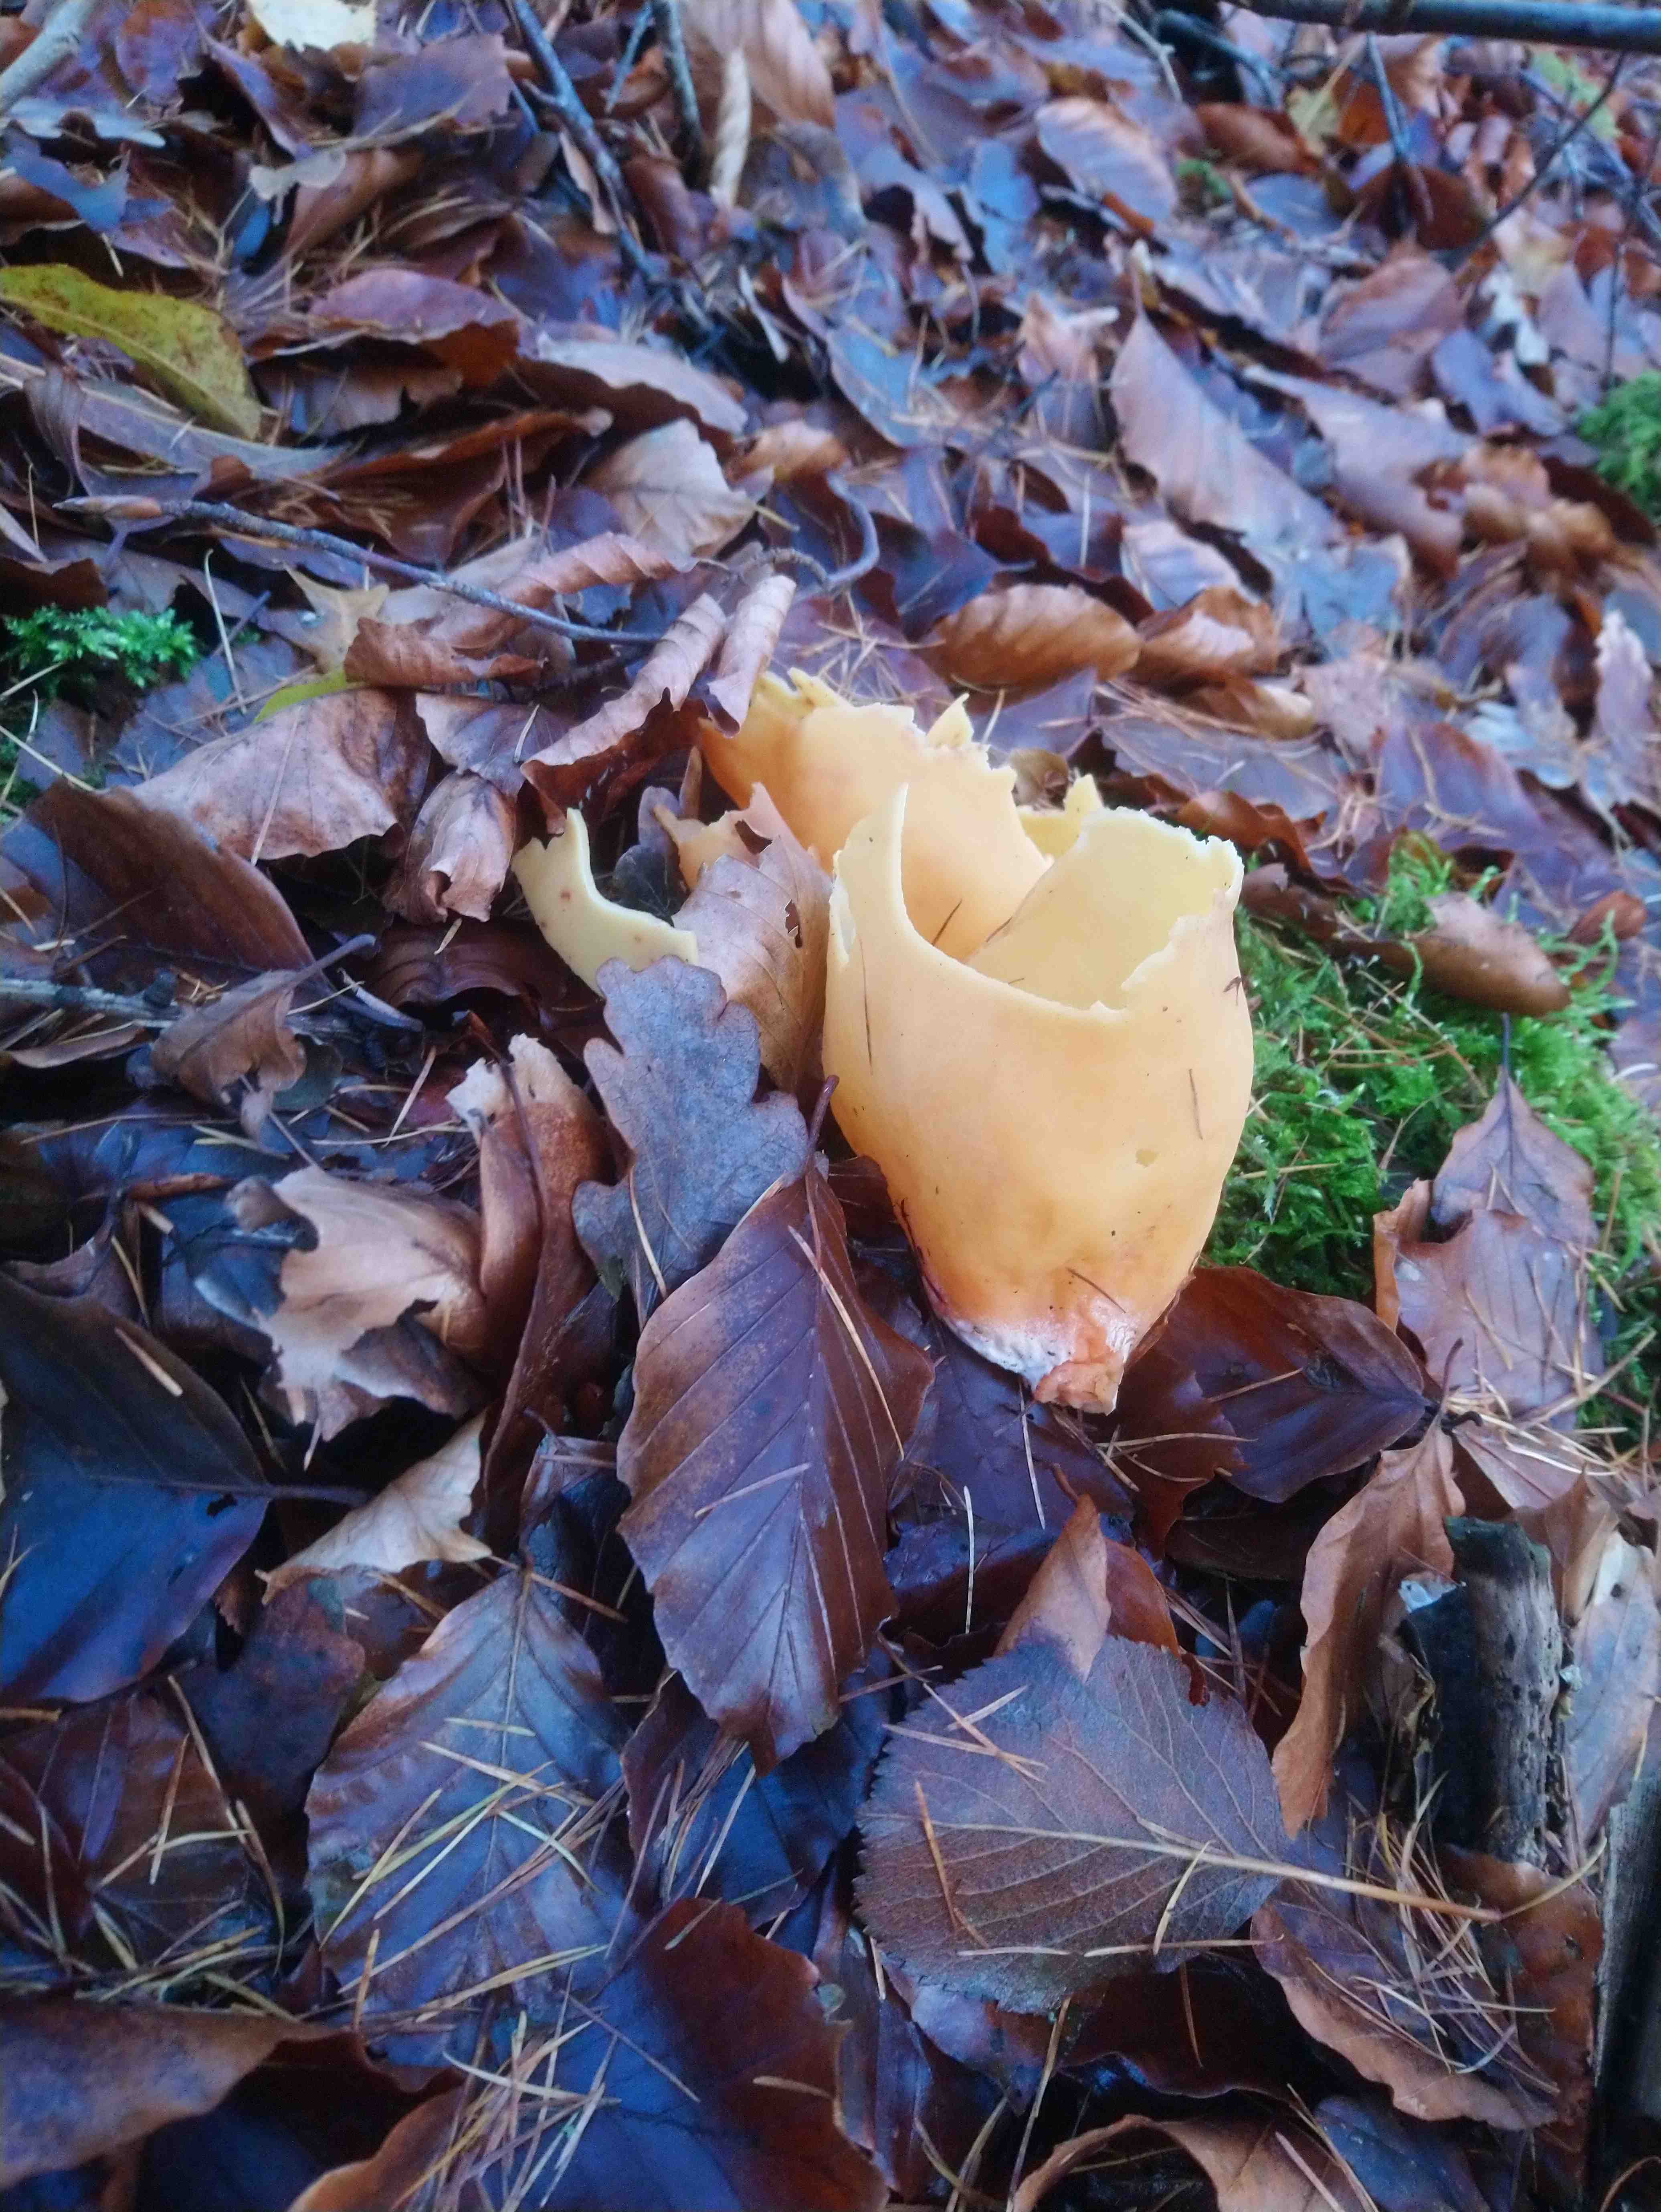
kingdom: Fungi
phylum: Ascomycota
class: Pezizomycetes
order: Pezizales
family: Otideaceae
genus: Otidea
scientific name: Otidea onotica
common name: æsel-ørebæger
